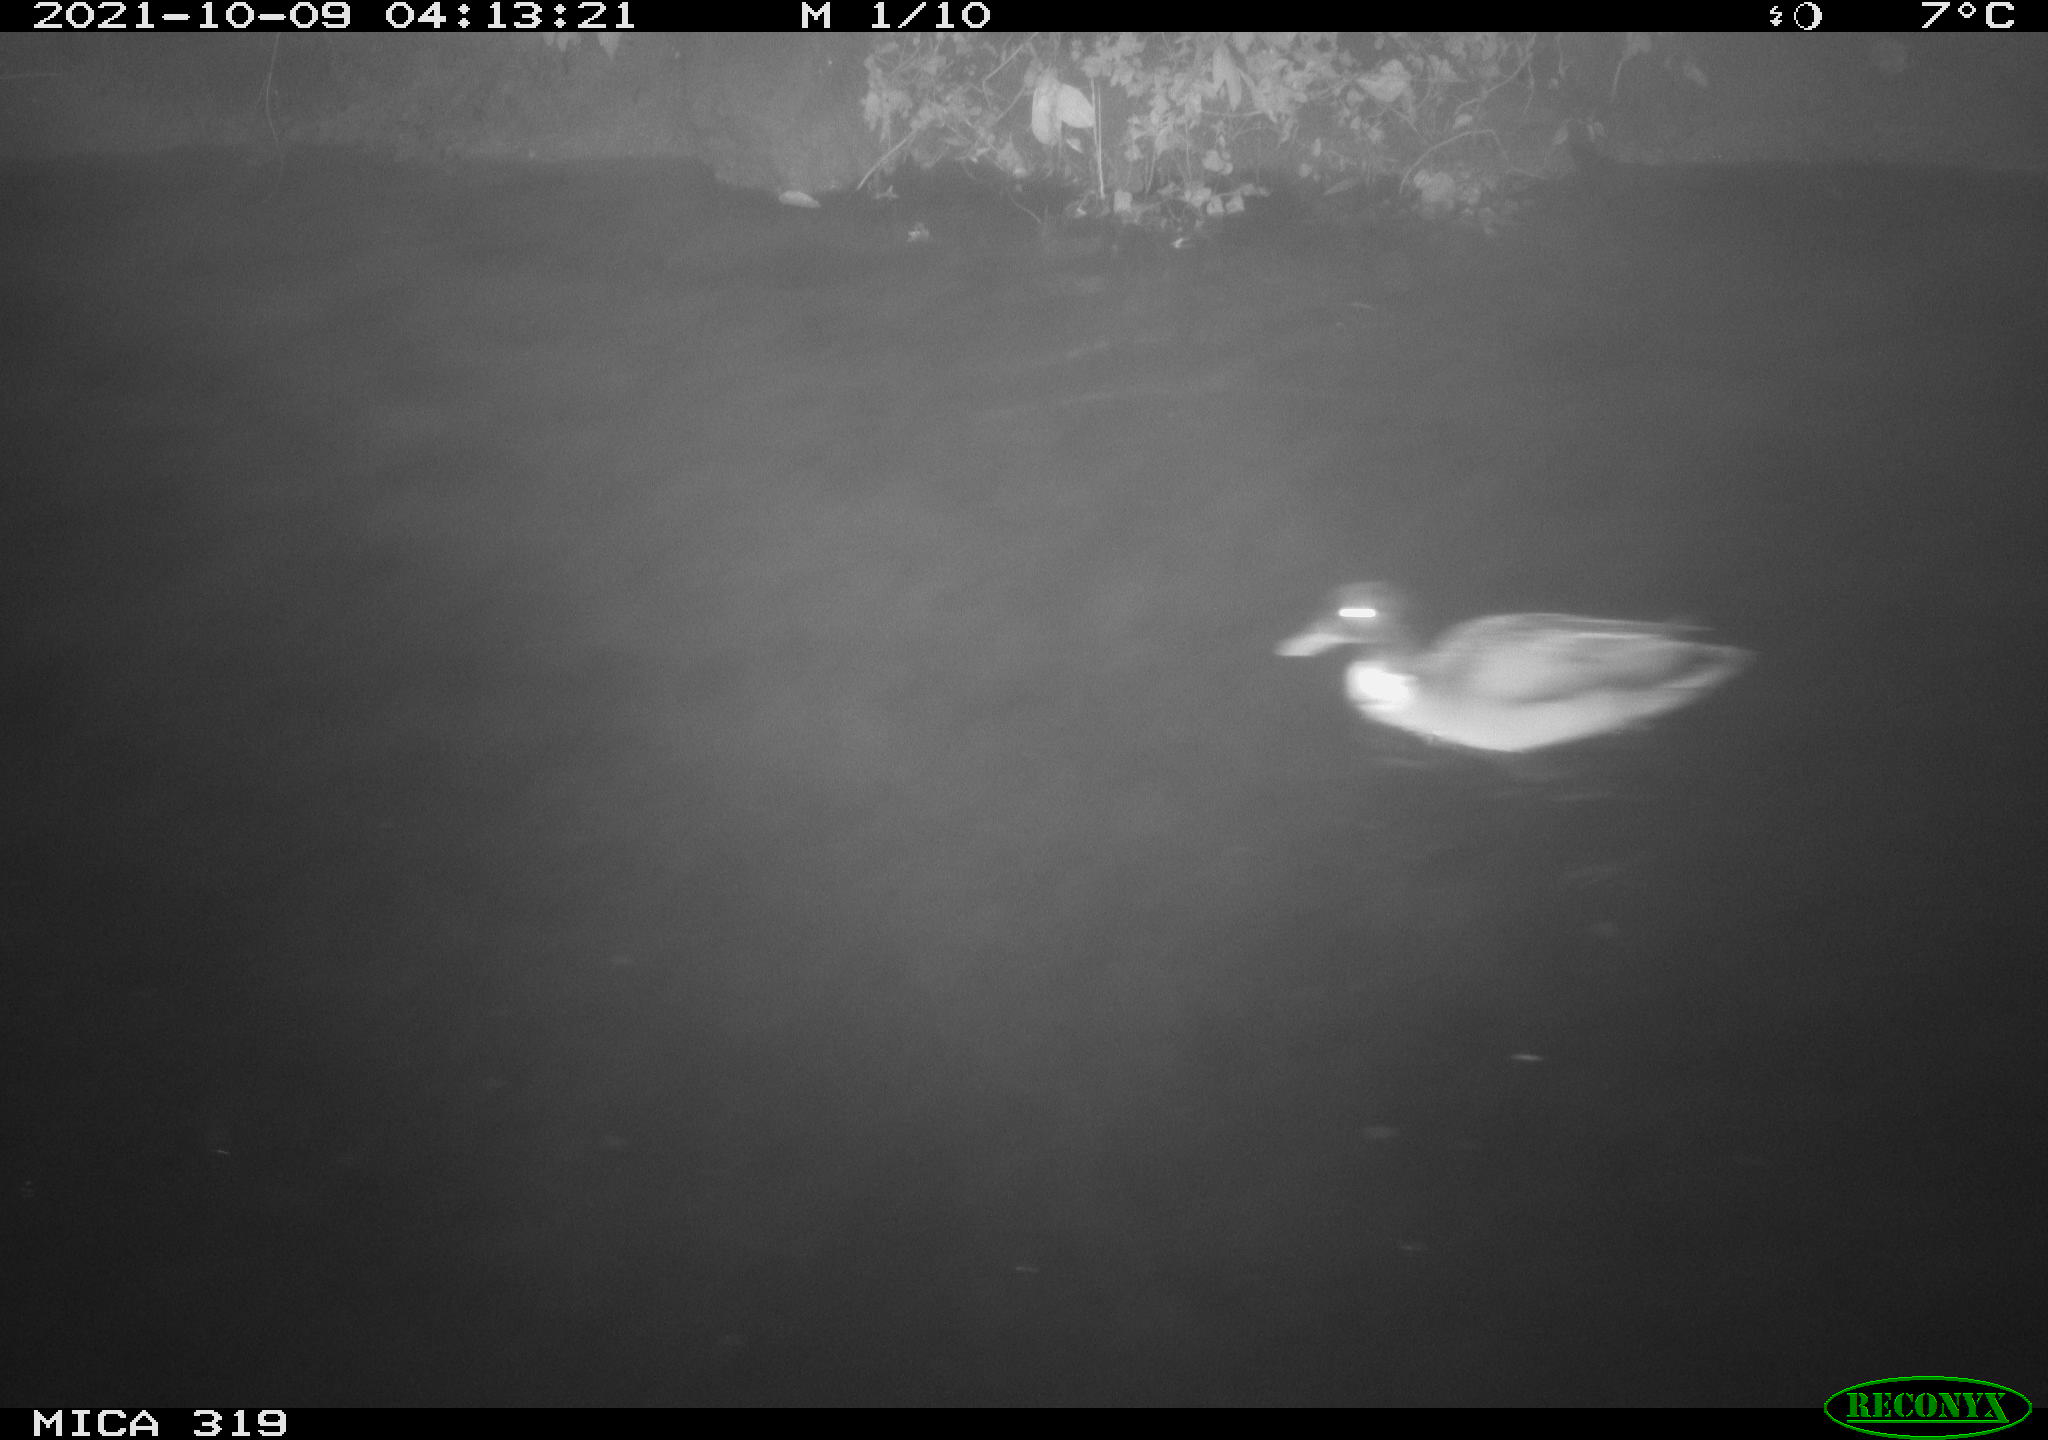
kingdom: Animalia
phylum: Chordata
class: Aves
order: Anseriformes
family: Anatidae
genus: Anas
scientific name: Anas platyrhynchos
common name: Mallard
